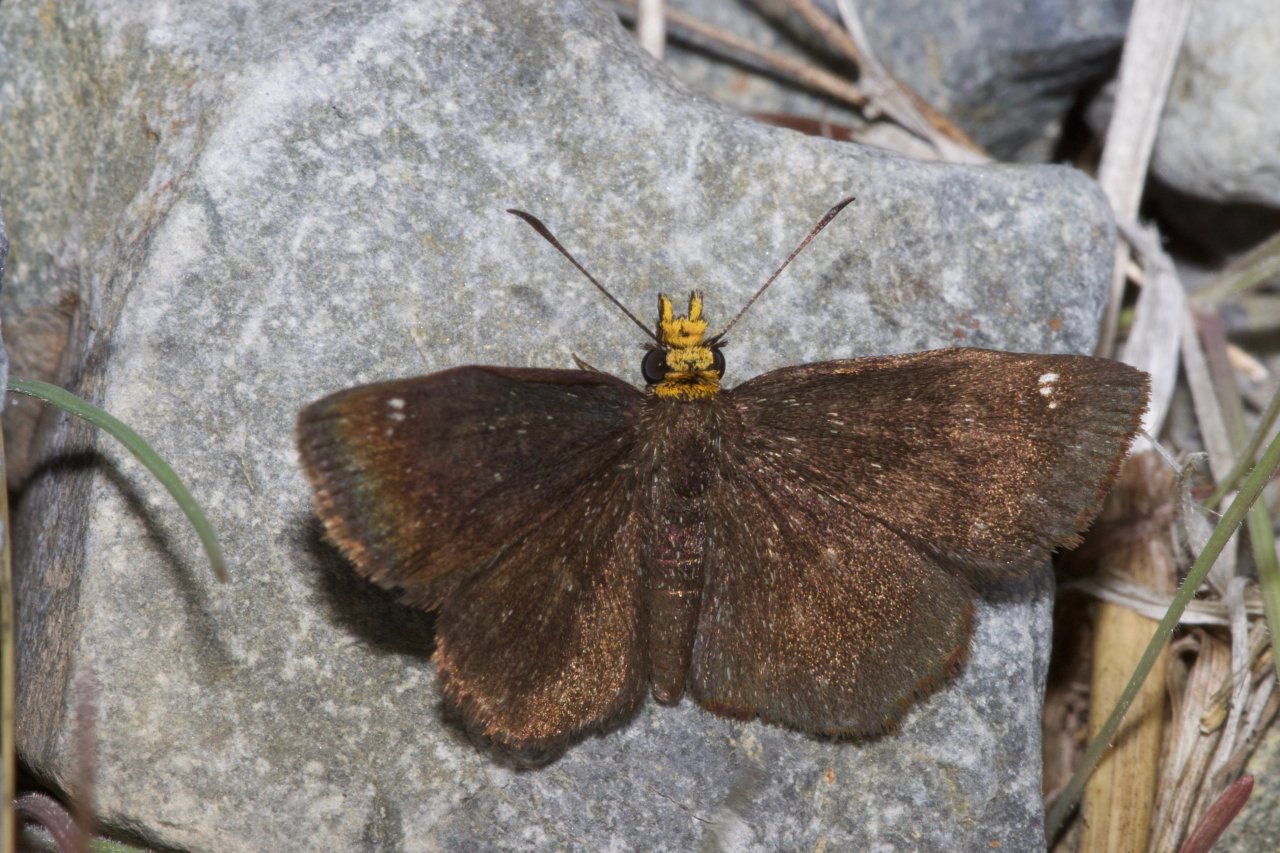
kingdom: Animalia
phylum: Arthropoda
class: Insecta
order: Lepidoptera
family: Hesperiidae
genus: Staphylus
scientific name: Staphylus ceos
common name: Golden-headed Scallopwing
